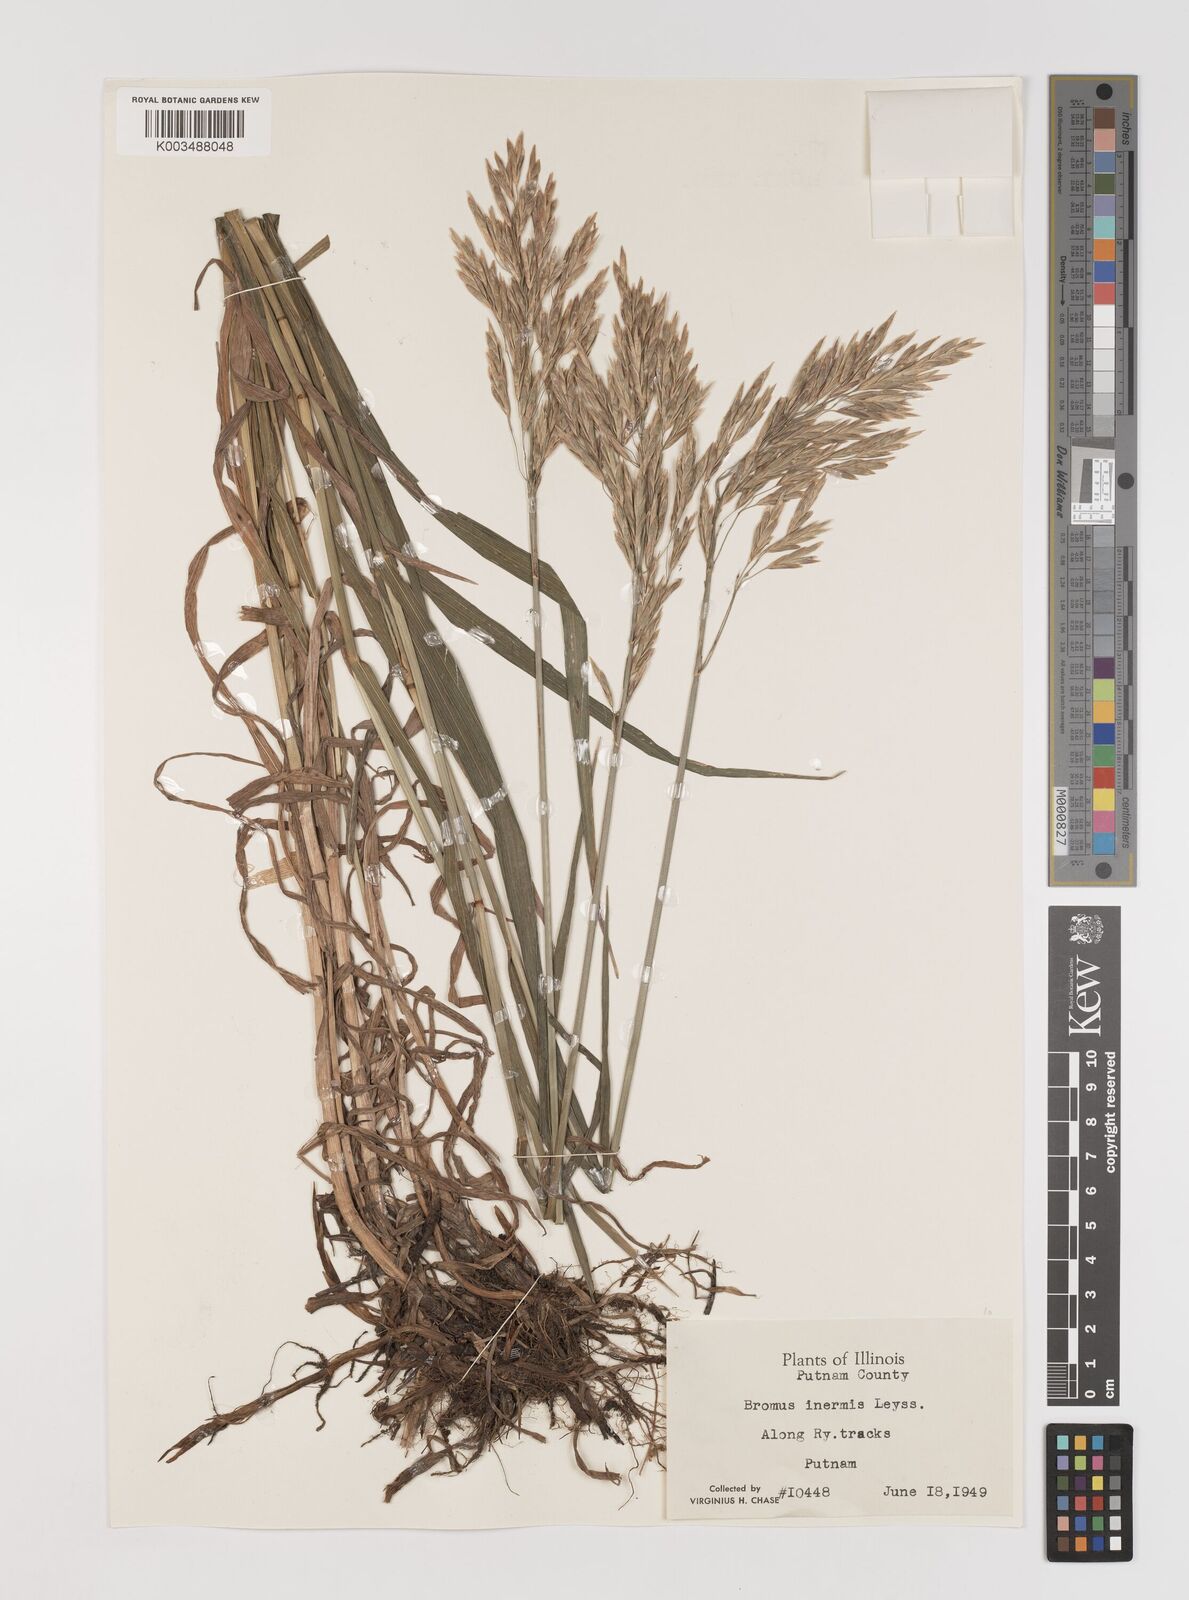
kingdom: Plantae
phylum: Tracheophyta
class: Liliopsida
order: Poales
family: Poaceae
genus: Bromus
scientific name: Bromus inermis
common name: Smooth brome
